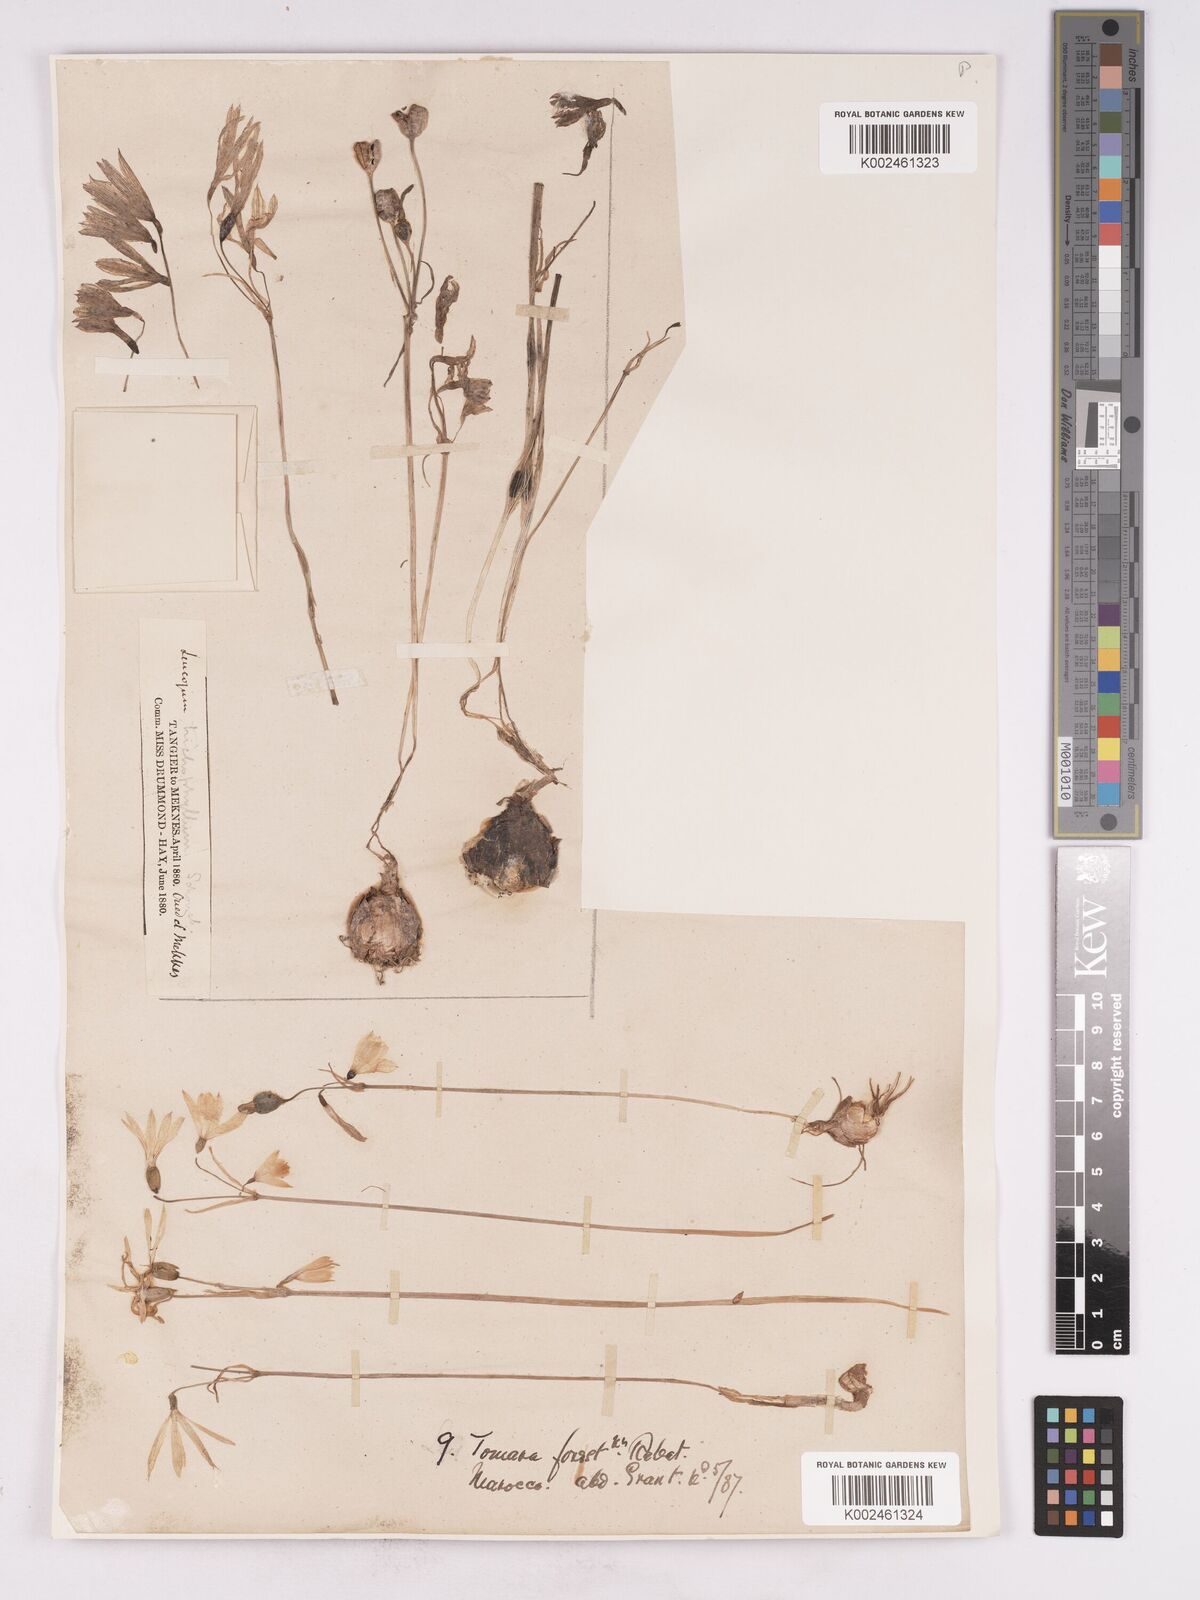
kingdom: Plantae
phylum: Tracheophyta
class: Liliopsida
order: Asparagales
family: Amaryllidaceae
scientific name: Amaryllidaceae
